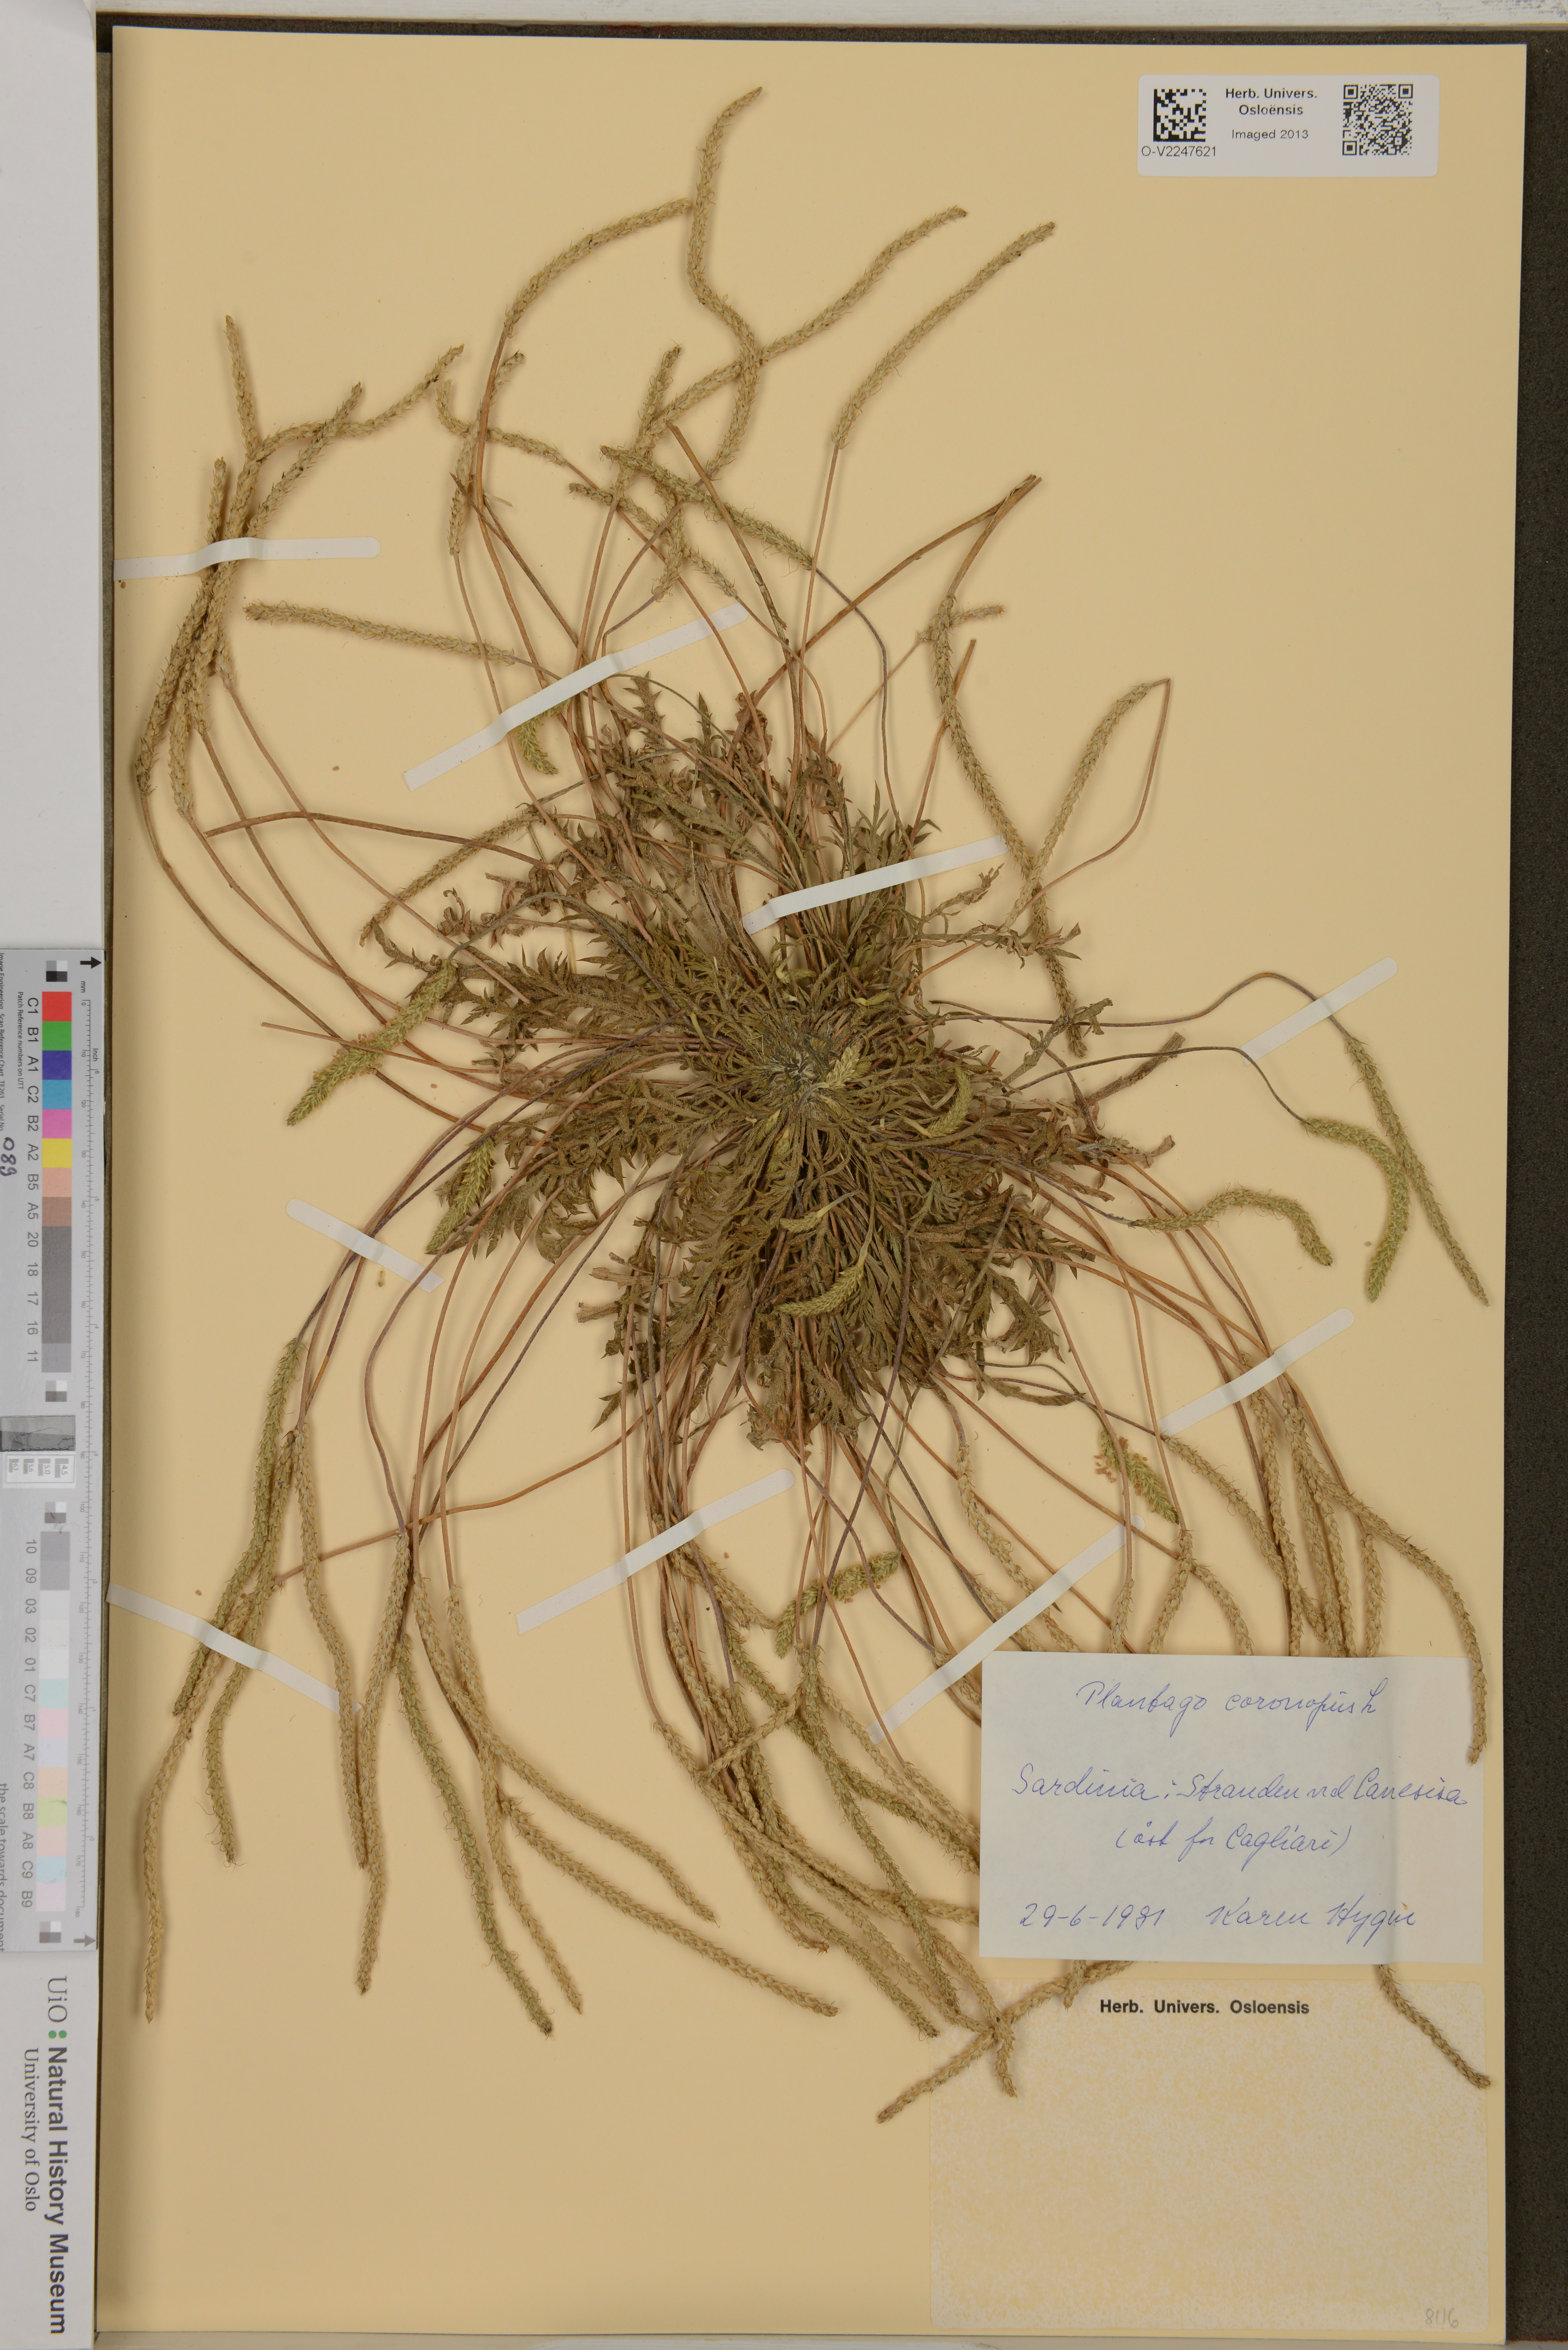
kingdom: Plantae
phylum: Tracheophyta
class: Magnoliopsida
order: Lamiales
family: Plantaginaceae
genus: Plantago
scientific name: Plantago coronopus
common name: Buck's-horn plantain
